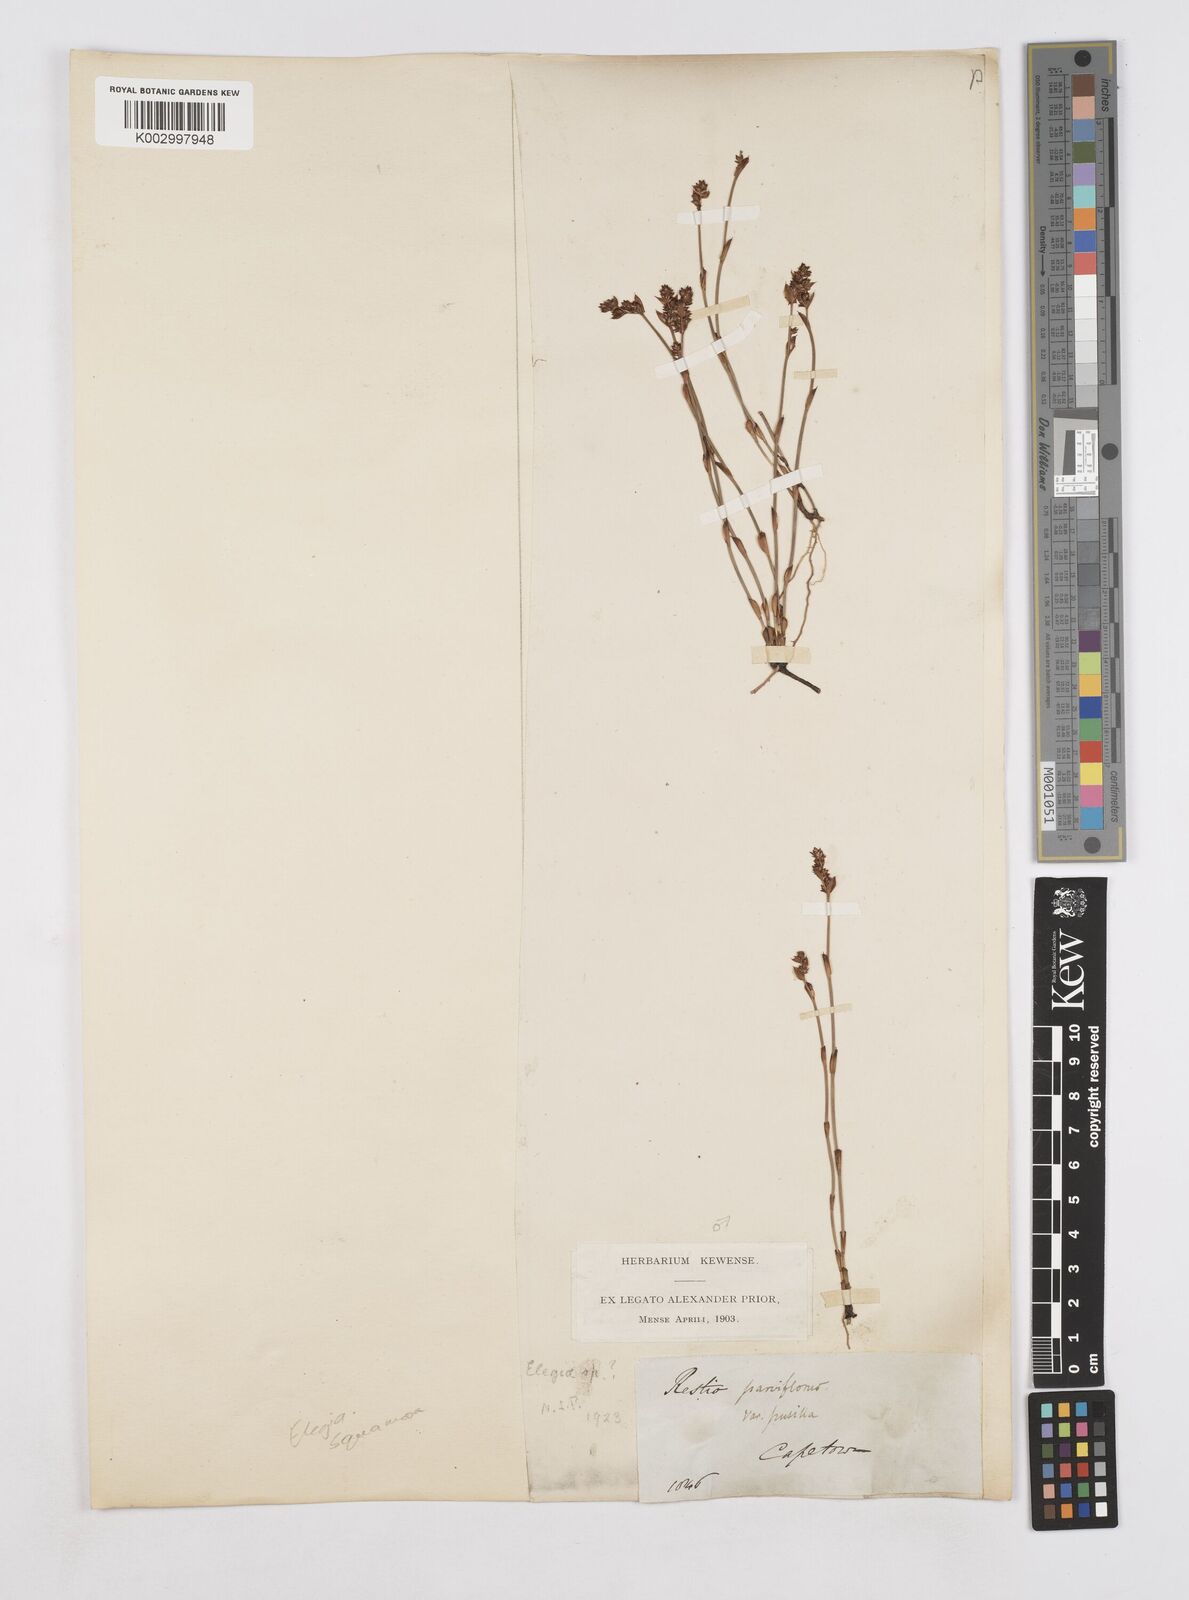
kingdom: Plantae
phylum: Tracheophyta
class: Liliopsida
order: Poales
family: Restionaceae
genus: Elegia
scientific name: Elegia squamosa
